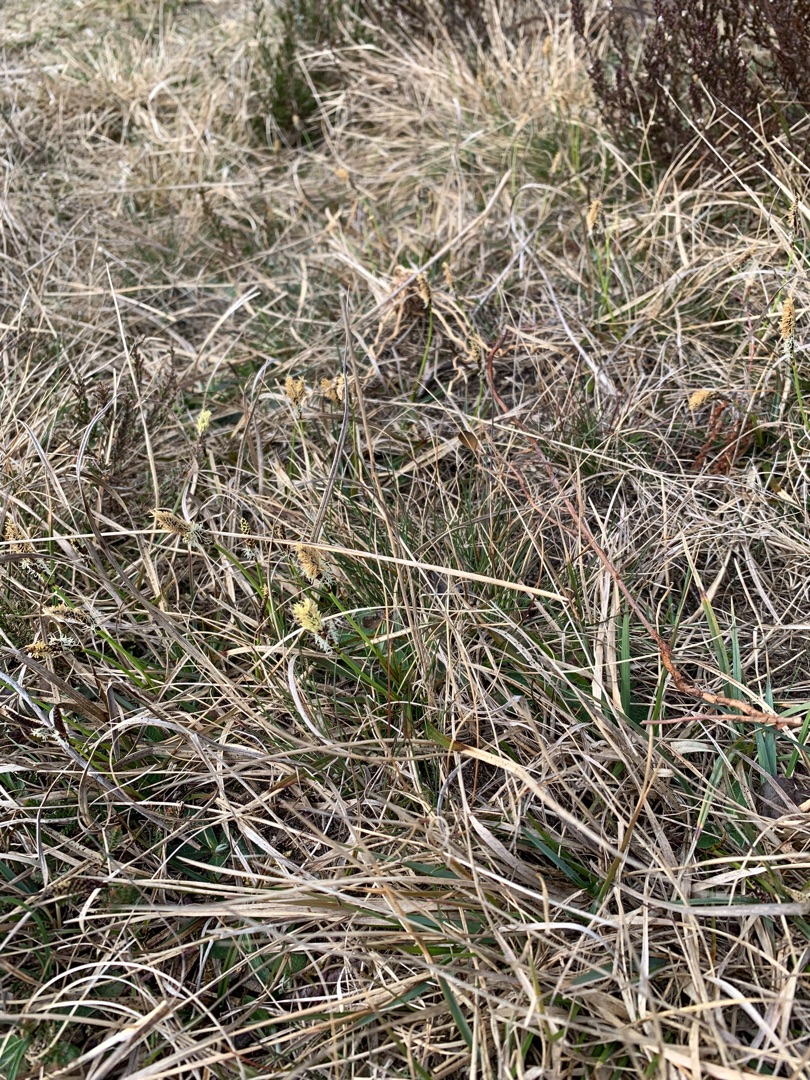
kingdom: Plantae
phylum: Tracheophyta
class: Liliopsida
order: Poales
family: Cyperaceae
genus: Carex
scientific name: Carex ericetorum
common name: Lyng-star
